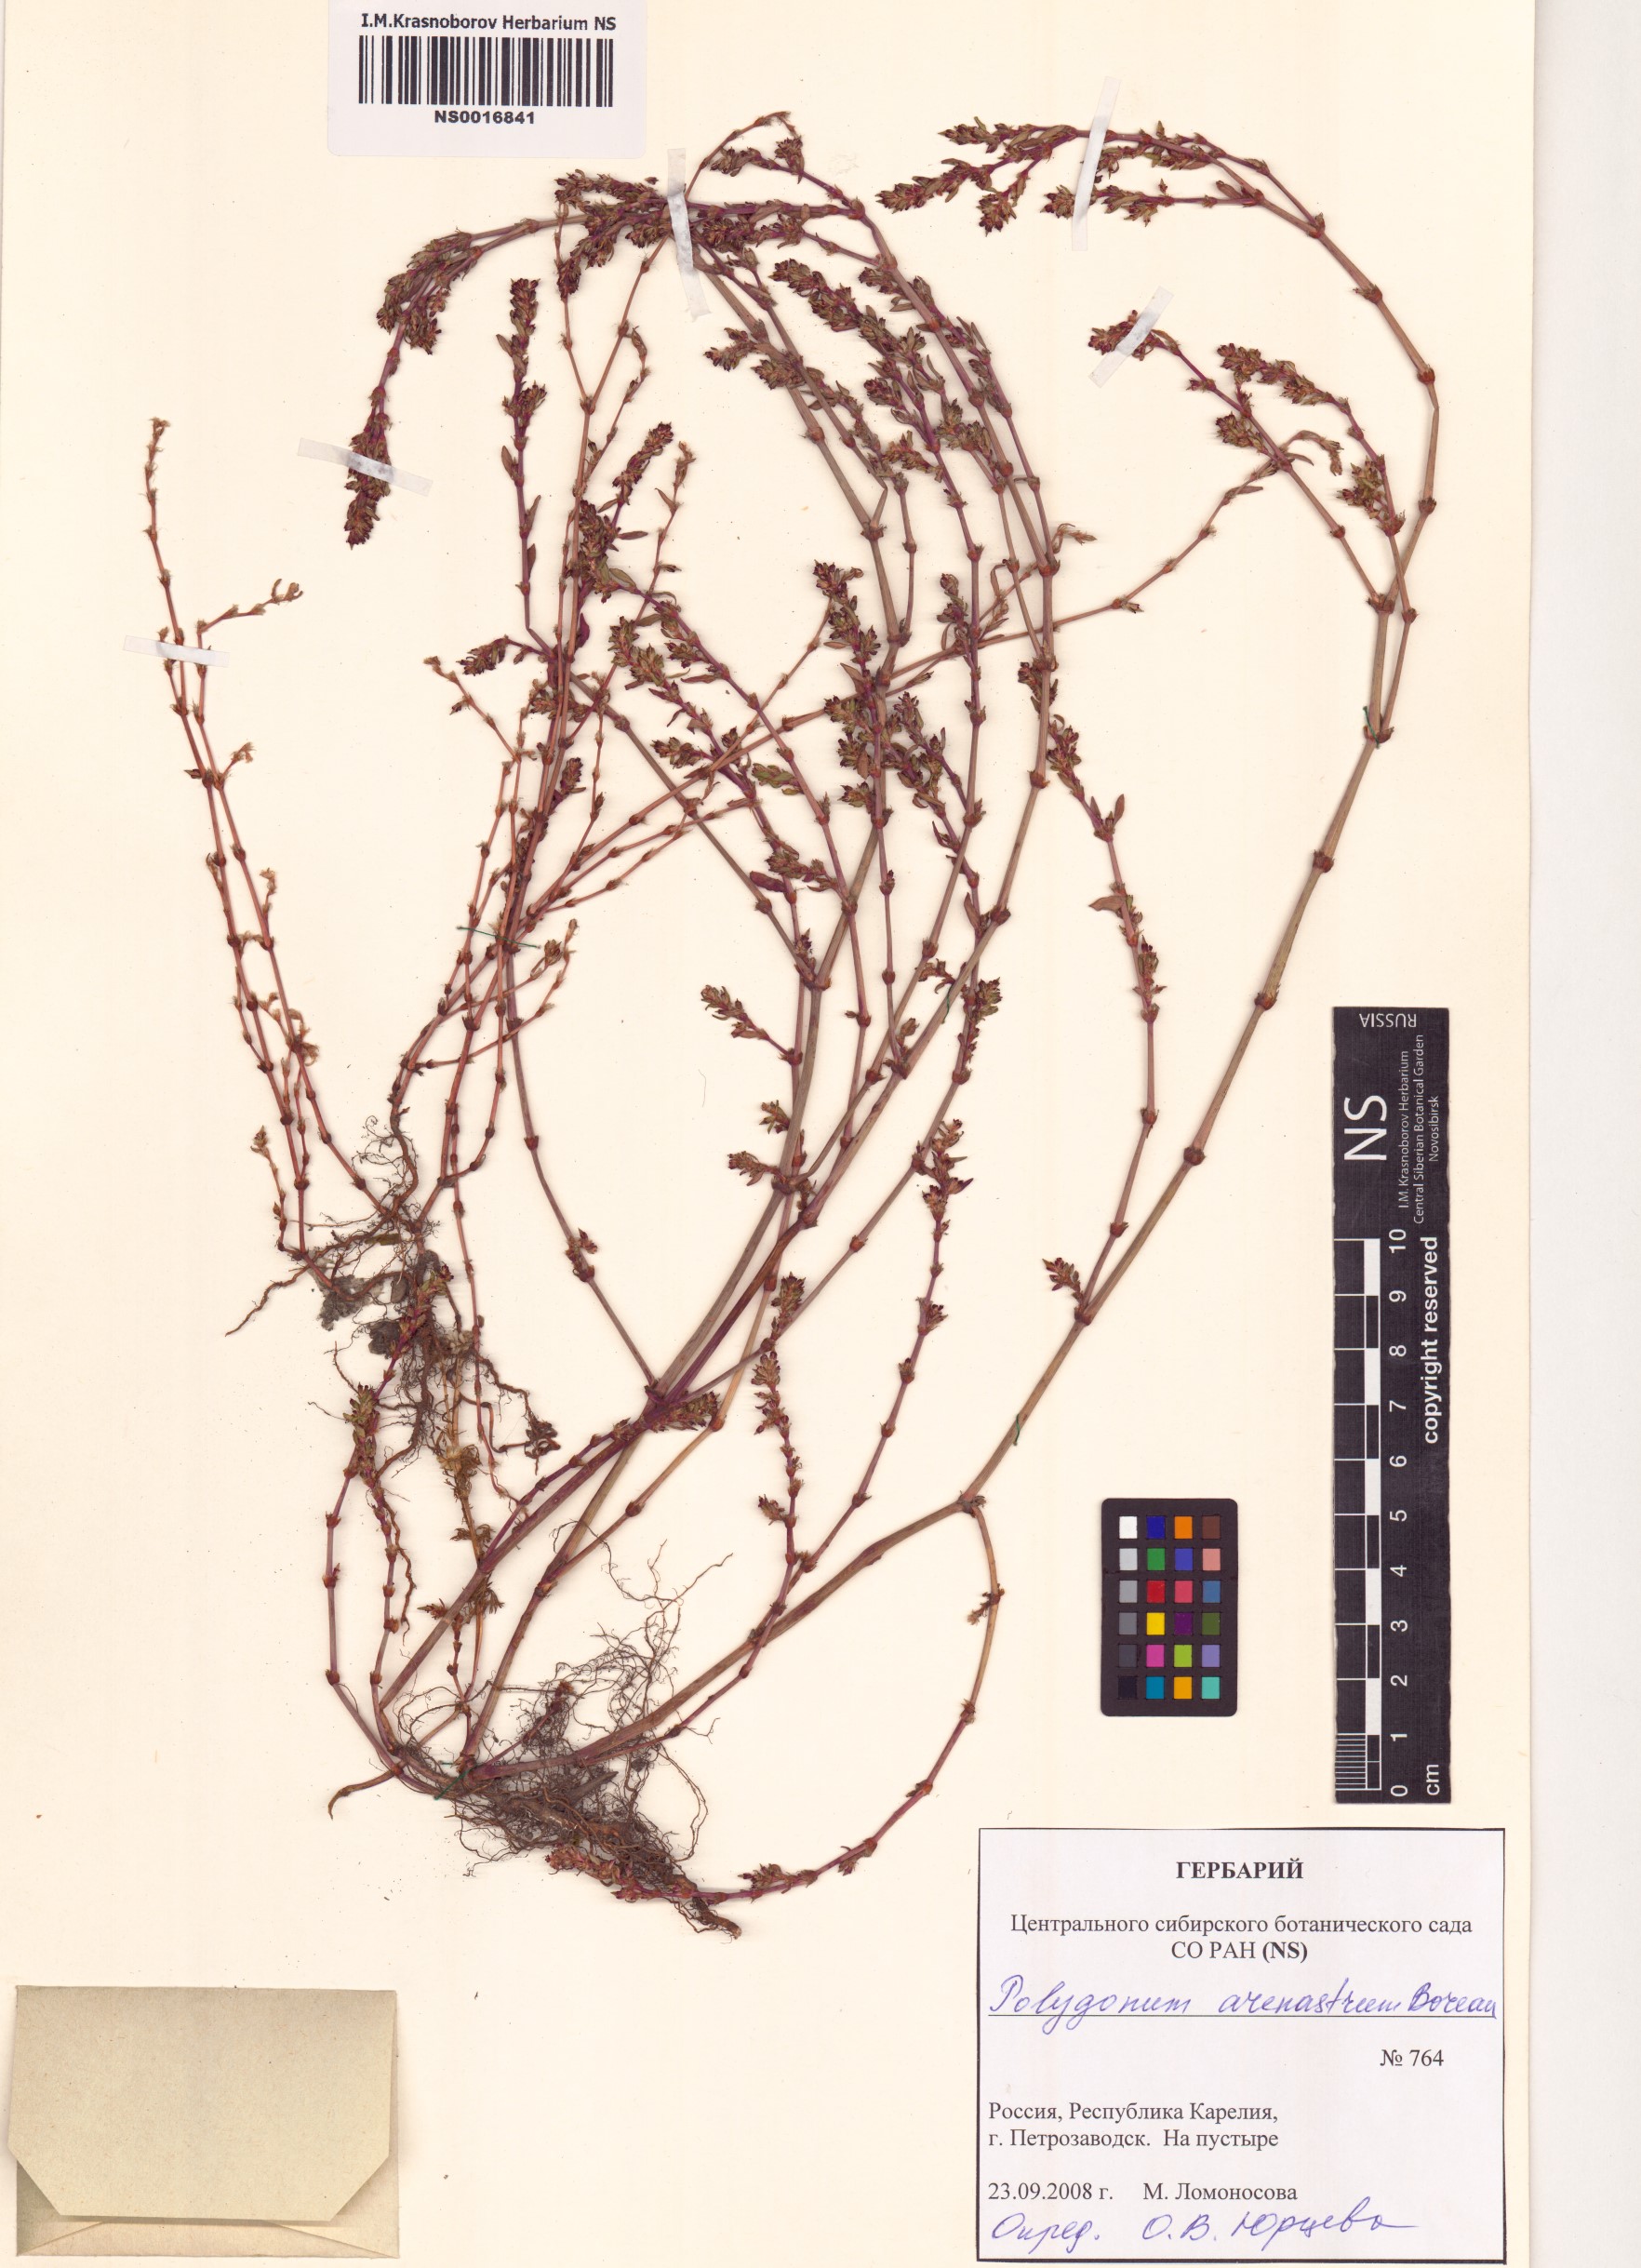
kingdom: Plantae
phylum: Tracheophyta
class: Magnoliopsida
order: Caryophyllales
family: Polygonaceae
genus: Polygonum
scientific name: Polygonum arenastrum
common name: Equal-leaved knotgrass
